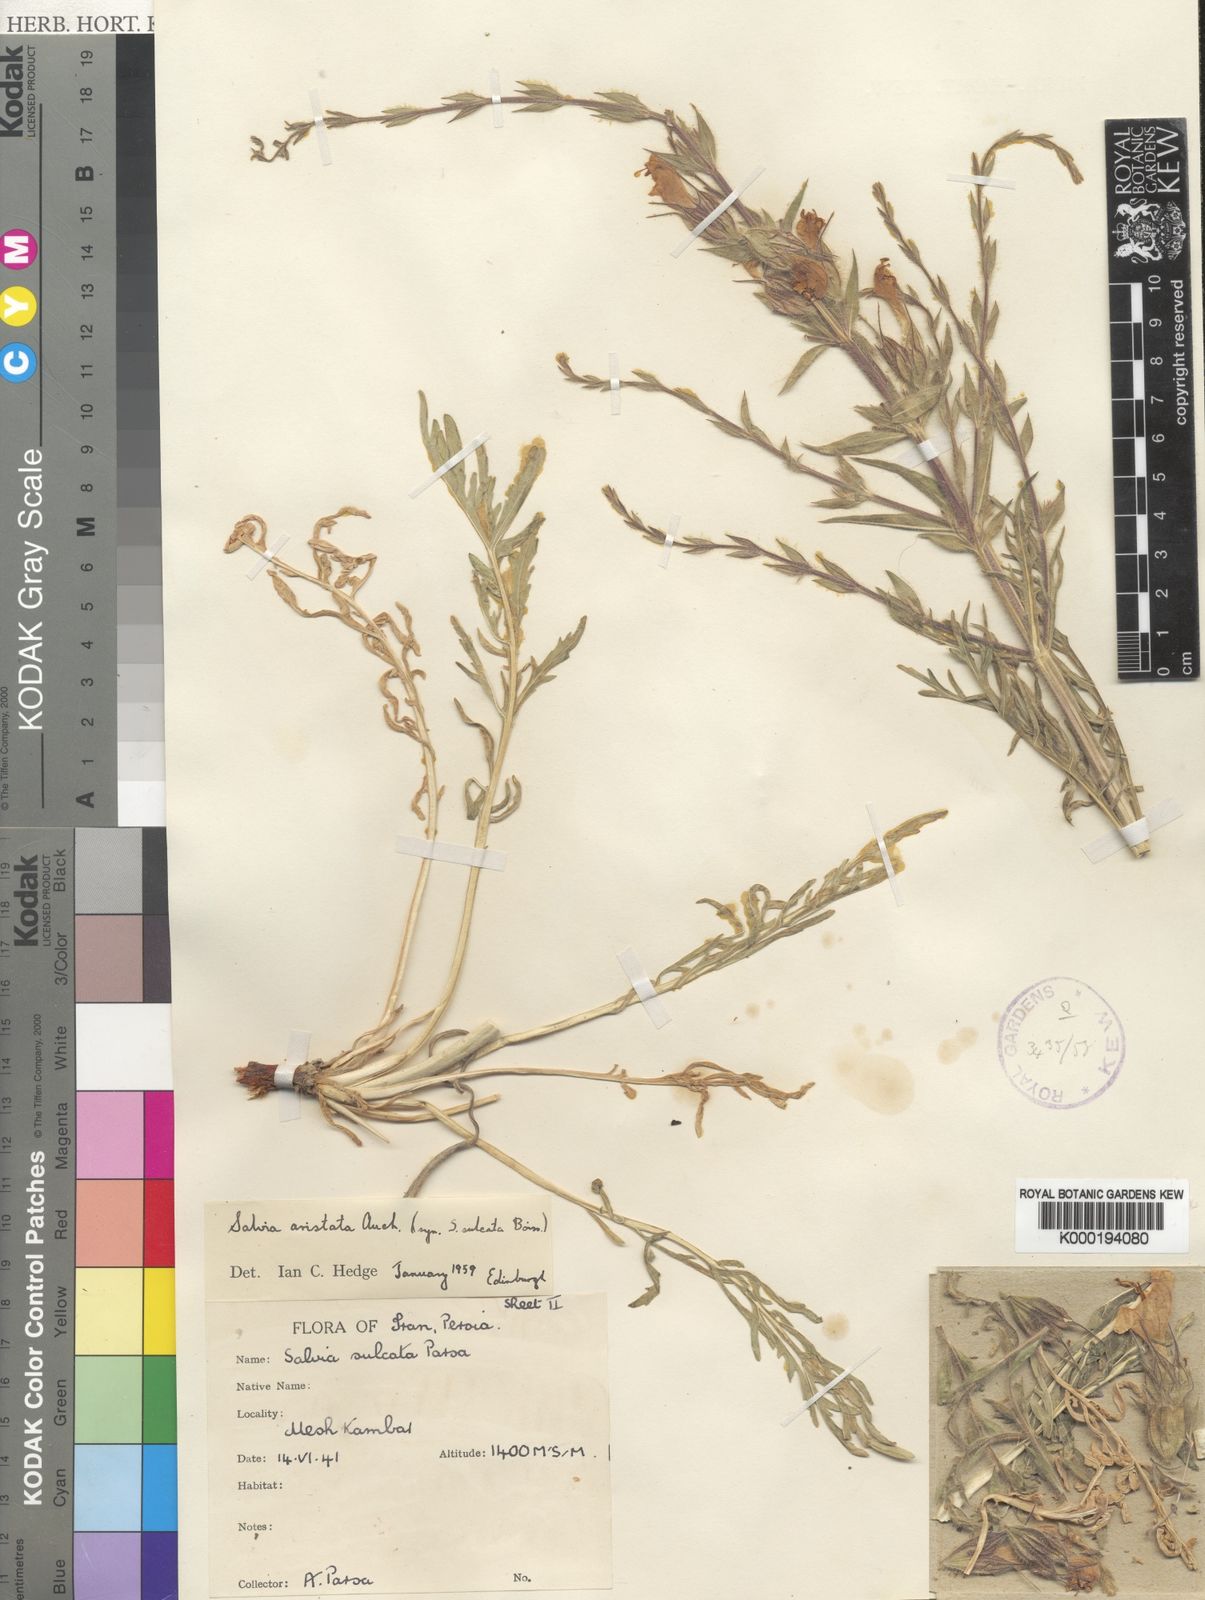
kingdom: Plantae
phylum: Tracheophyta
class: Magnoliopsida
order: Lamiales
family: Lamiaceae
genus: Salvia
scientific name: Salvia aristata
